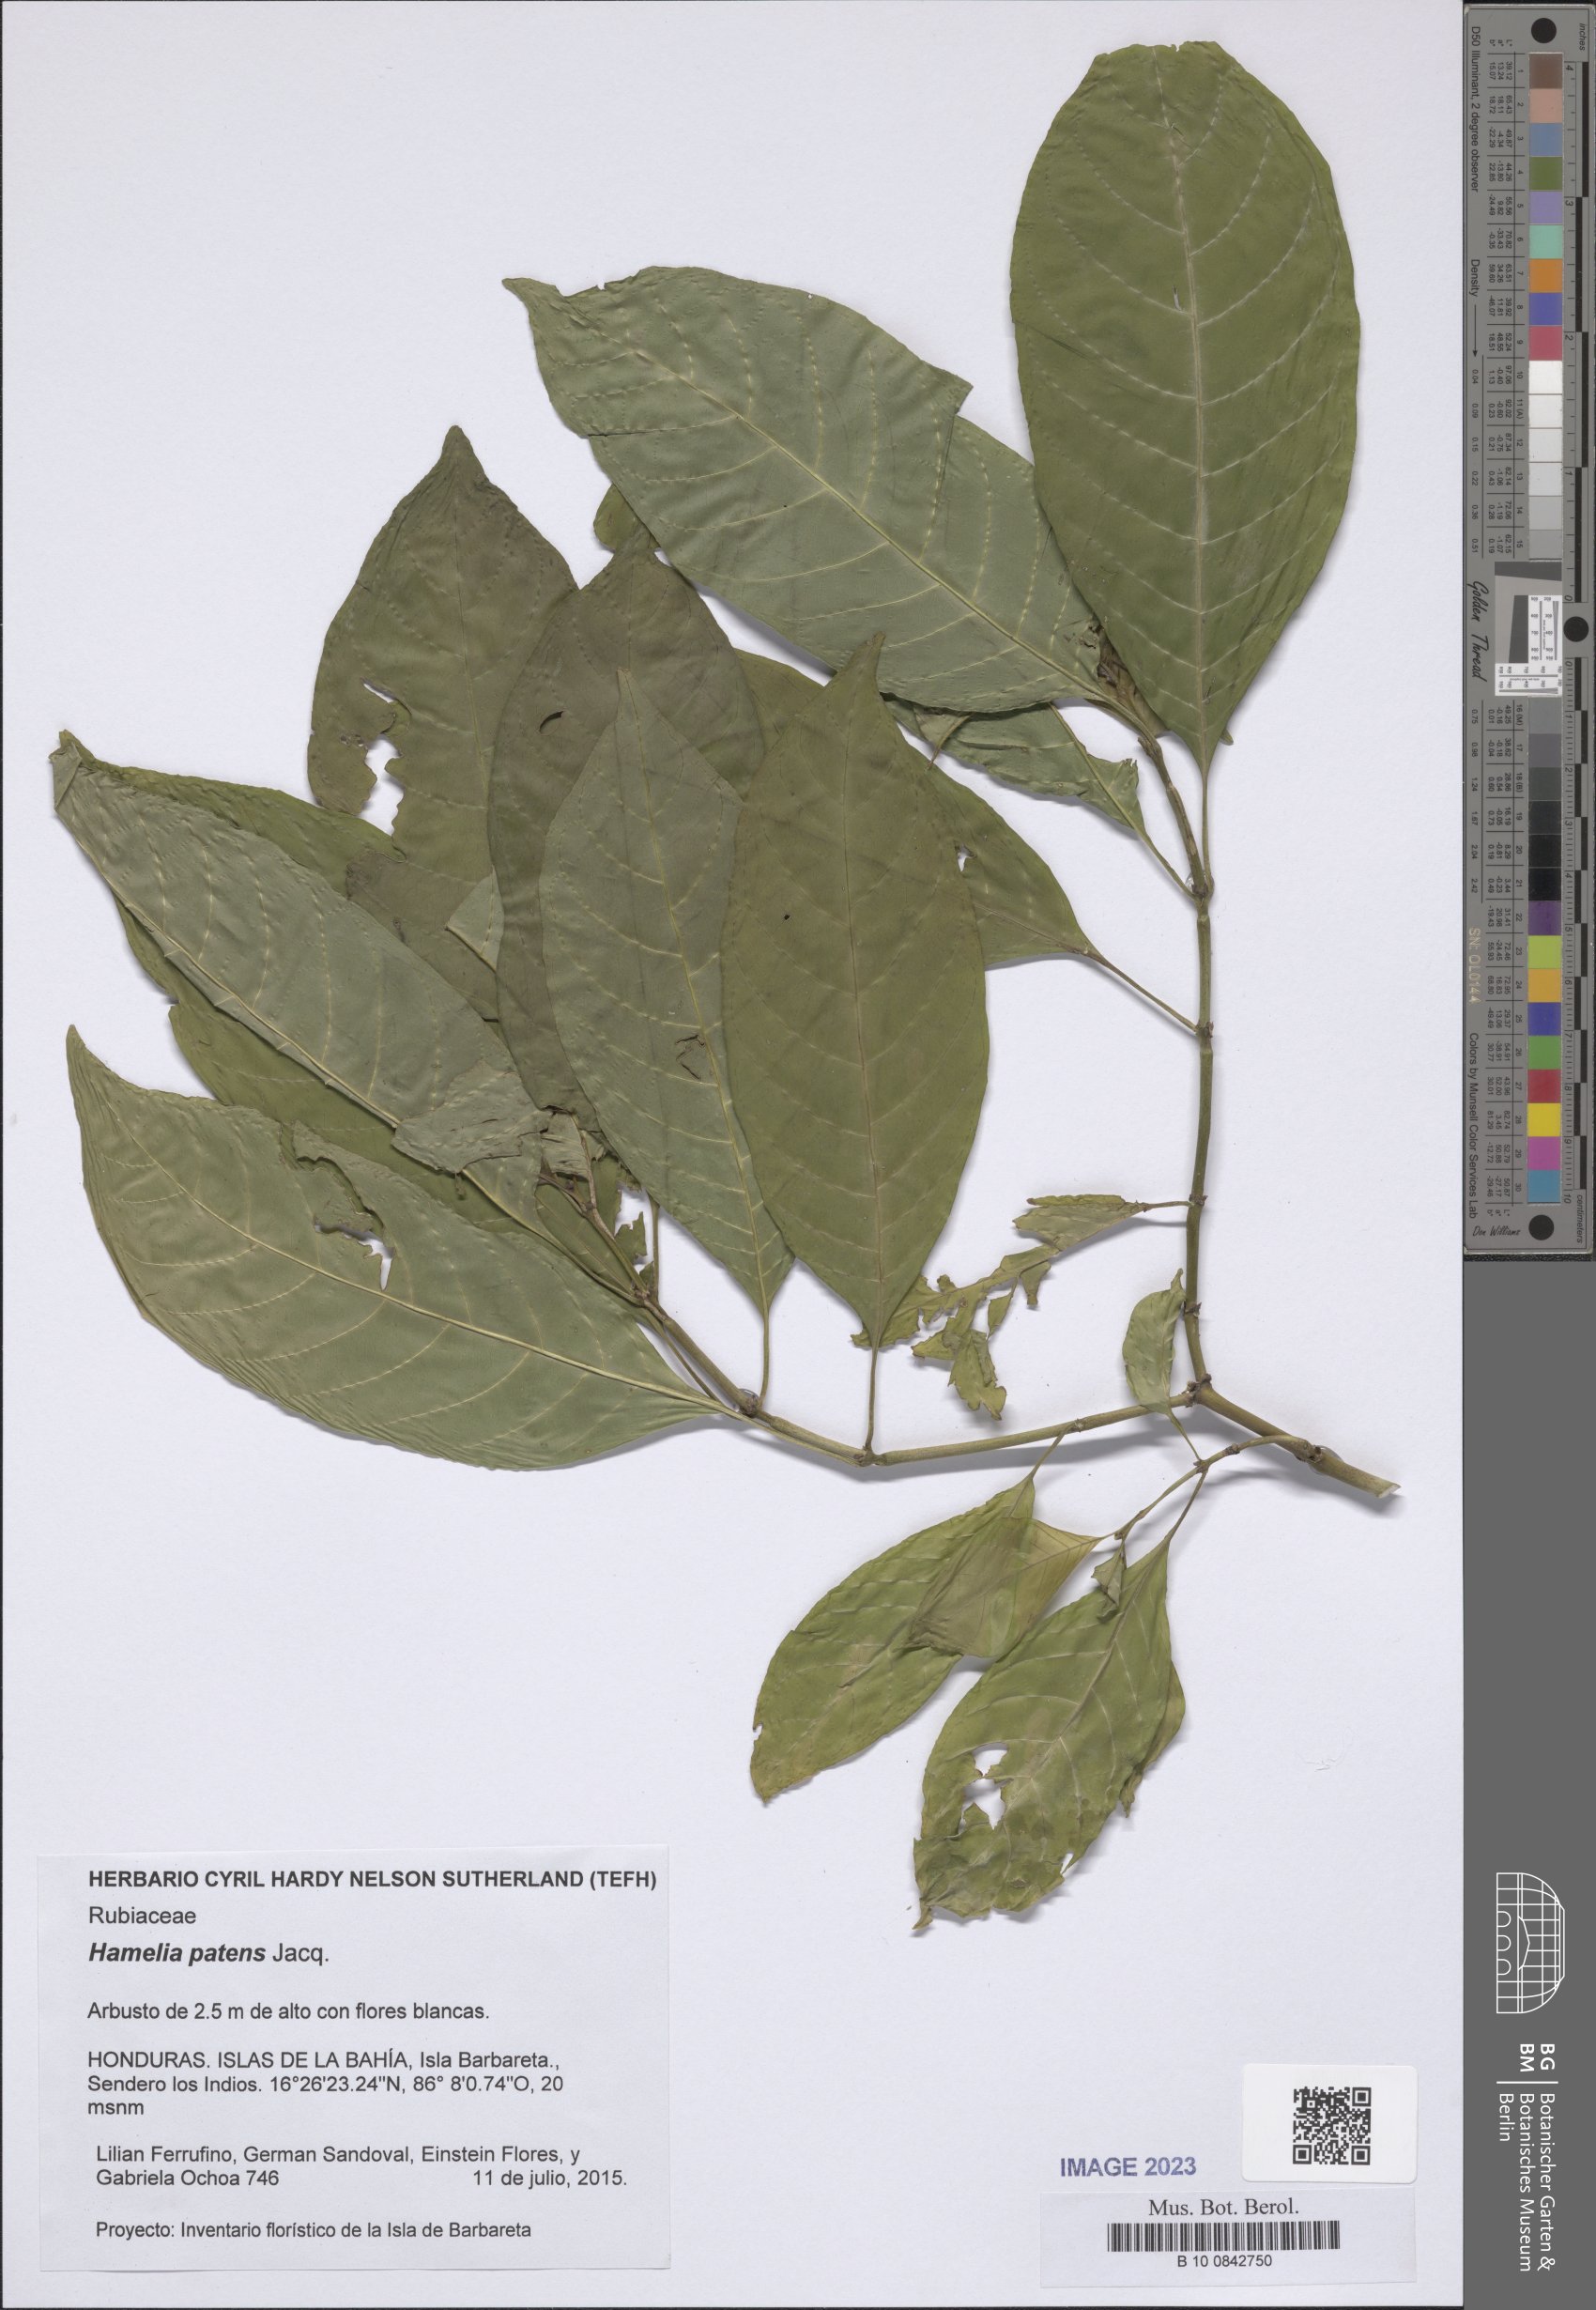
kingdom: Plantae
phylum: Tracheophyta
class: Magnoliopsida
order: Gentianales
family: Rubiaceae
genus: Hamelia
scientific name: Hamelia patens
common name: Redhead
